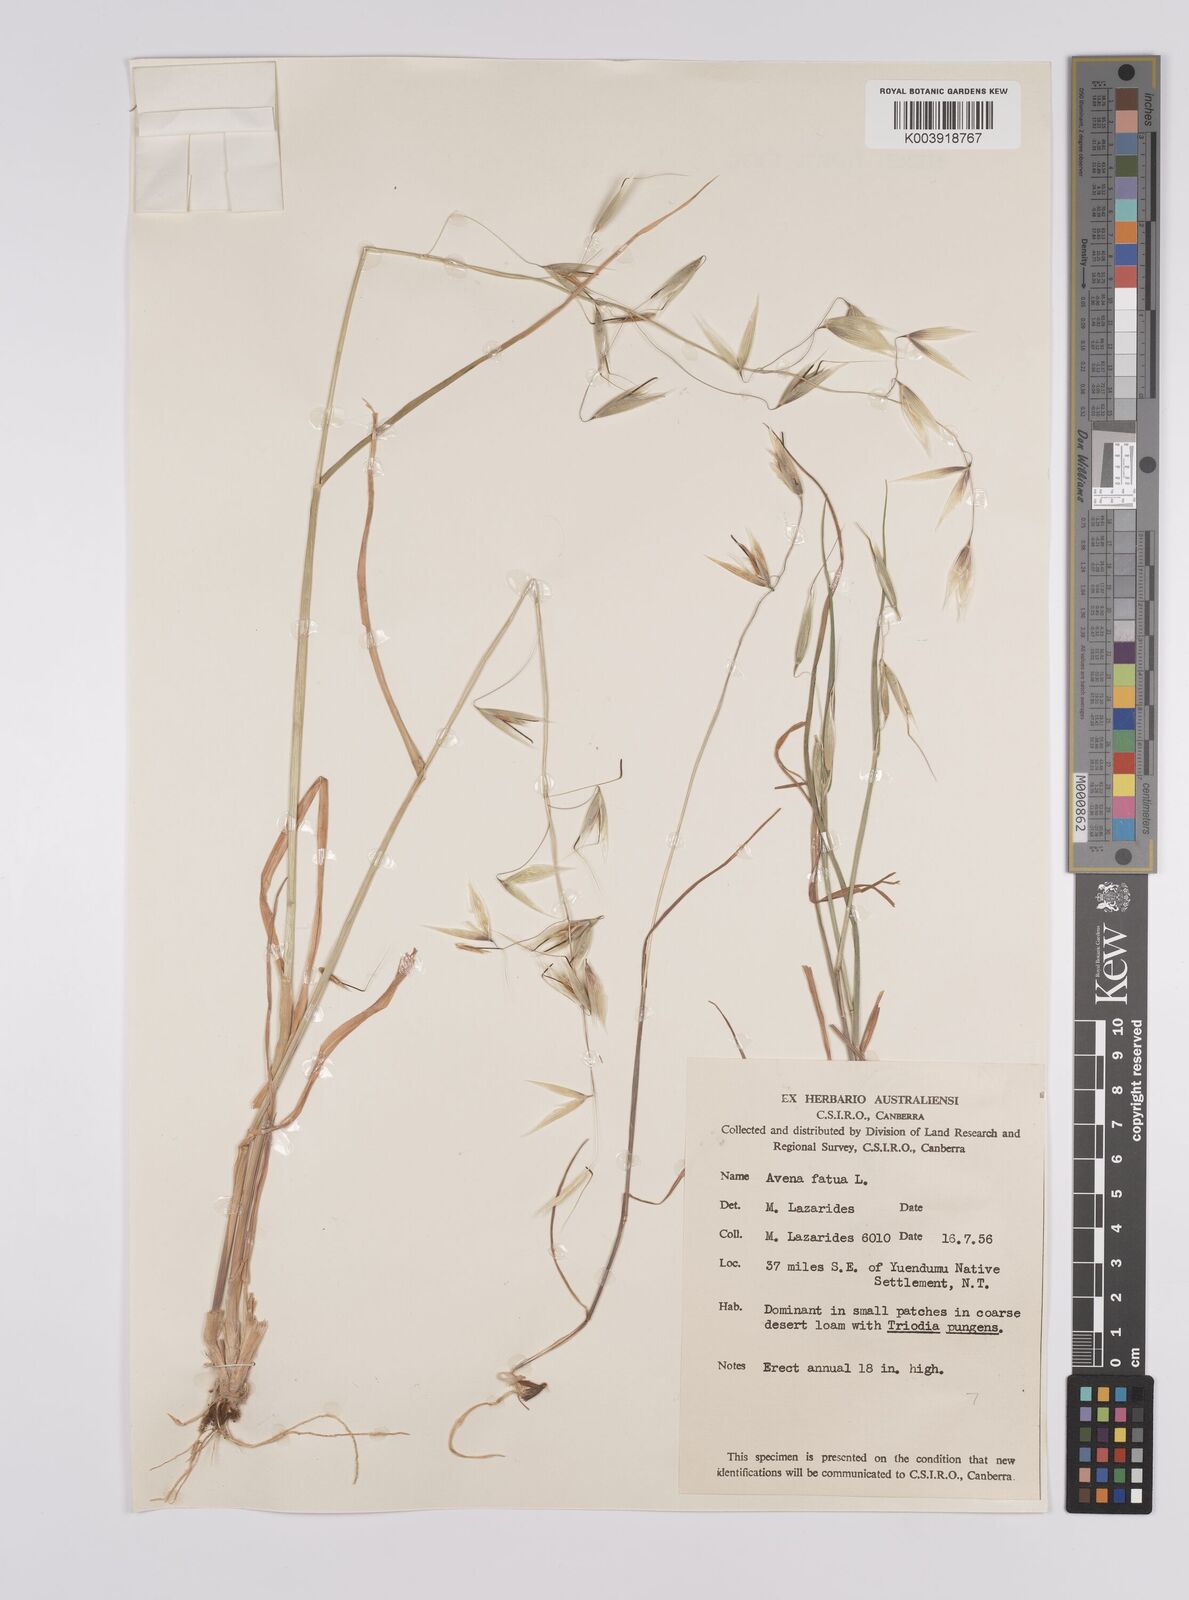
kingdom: Plantae
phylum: Tracheophyta
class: Liliopsida
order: Poales
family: Poaceae
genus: Avena
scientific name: Avena fatua
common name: Wild oat
